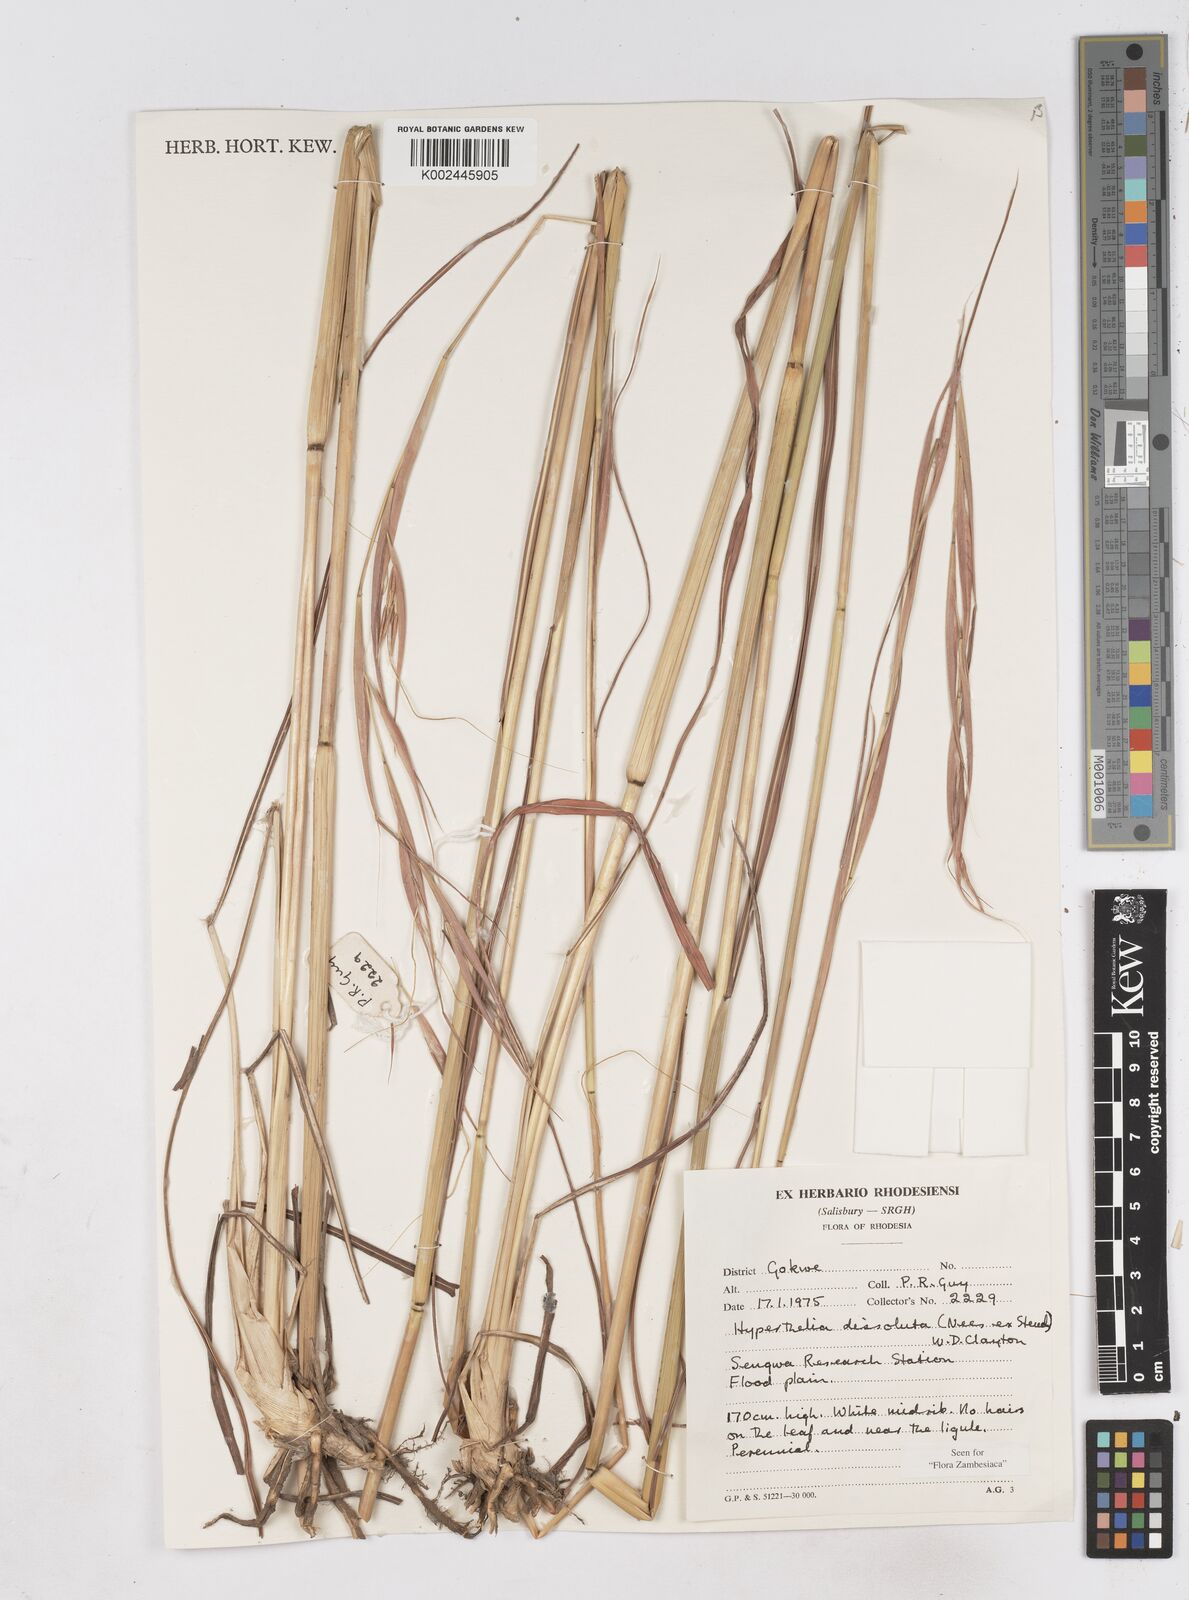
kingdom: Plantae
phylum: Tracheophyta
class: Liliopsida
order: Poales
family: Poaceae
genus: Hyperthelia
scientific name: Hyperthelia dissoluta
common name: Yellow thatching grass
